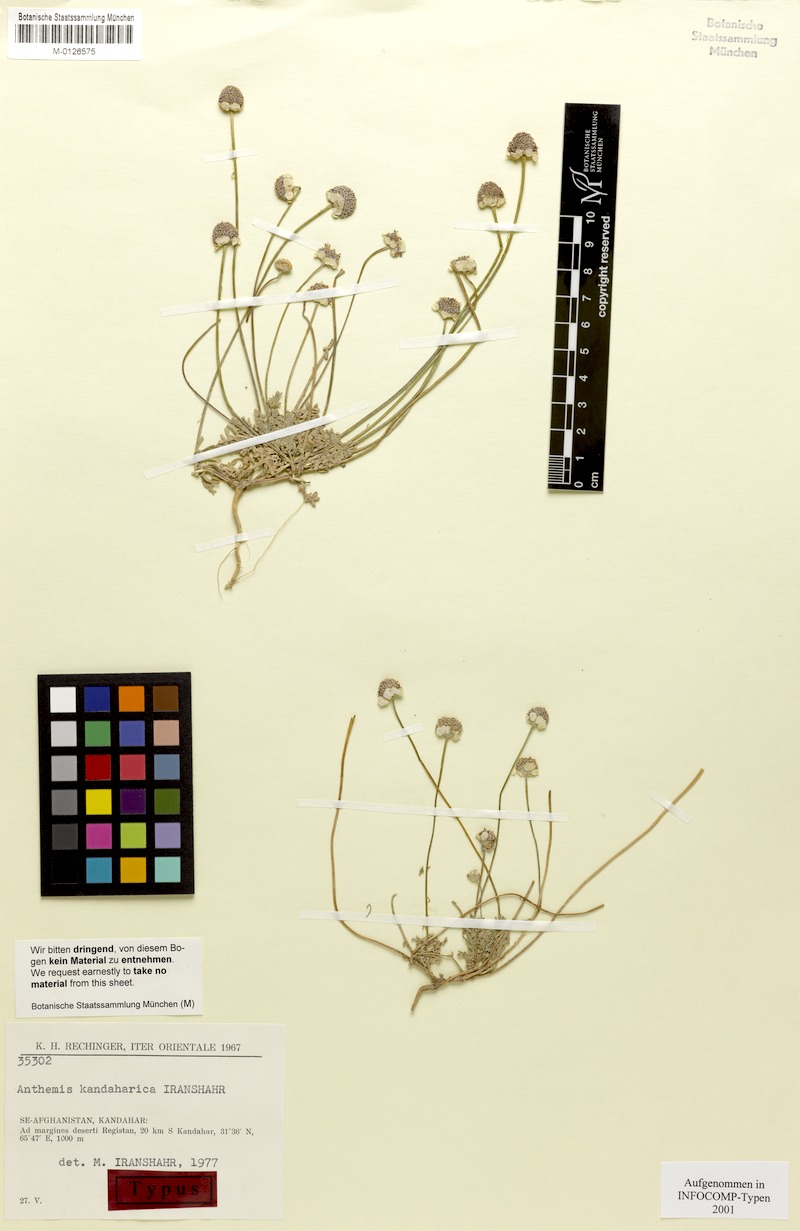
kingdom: Plantae
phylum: Tracheophyta
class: Magnoliopsida
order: Asterales
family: Asteraceae
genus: Anthemis
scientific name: Anthemis kandaharica
